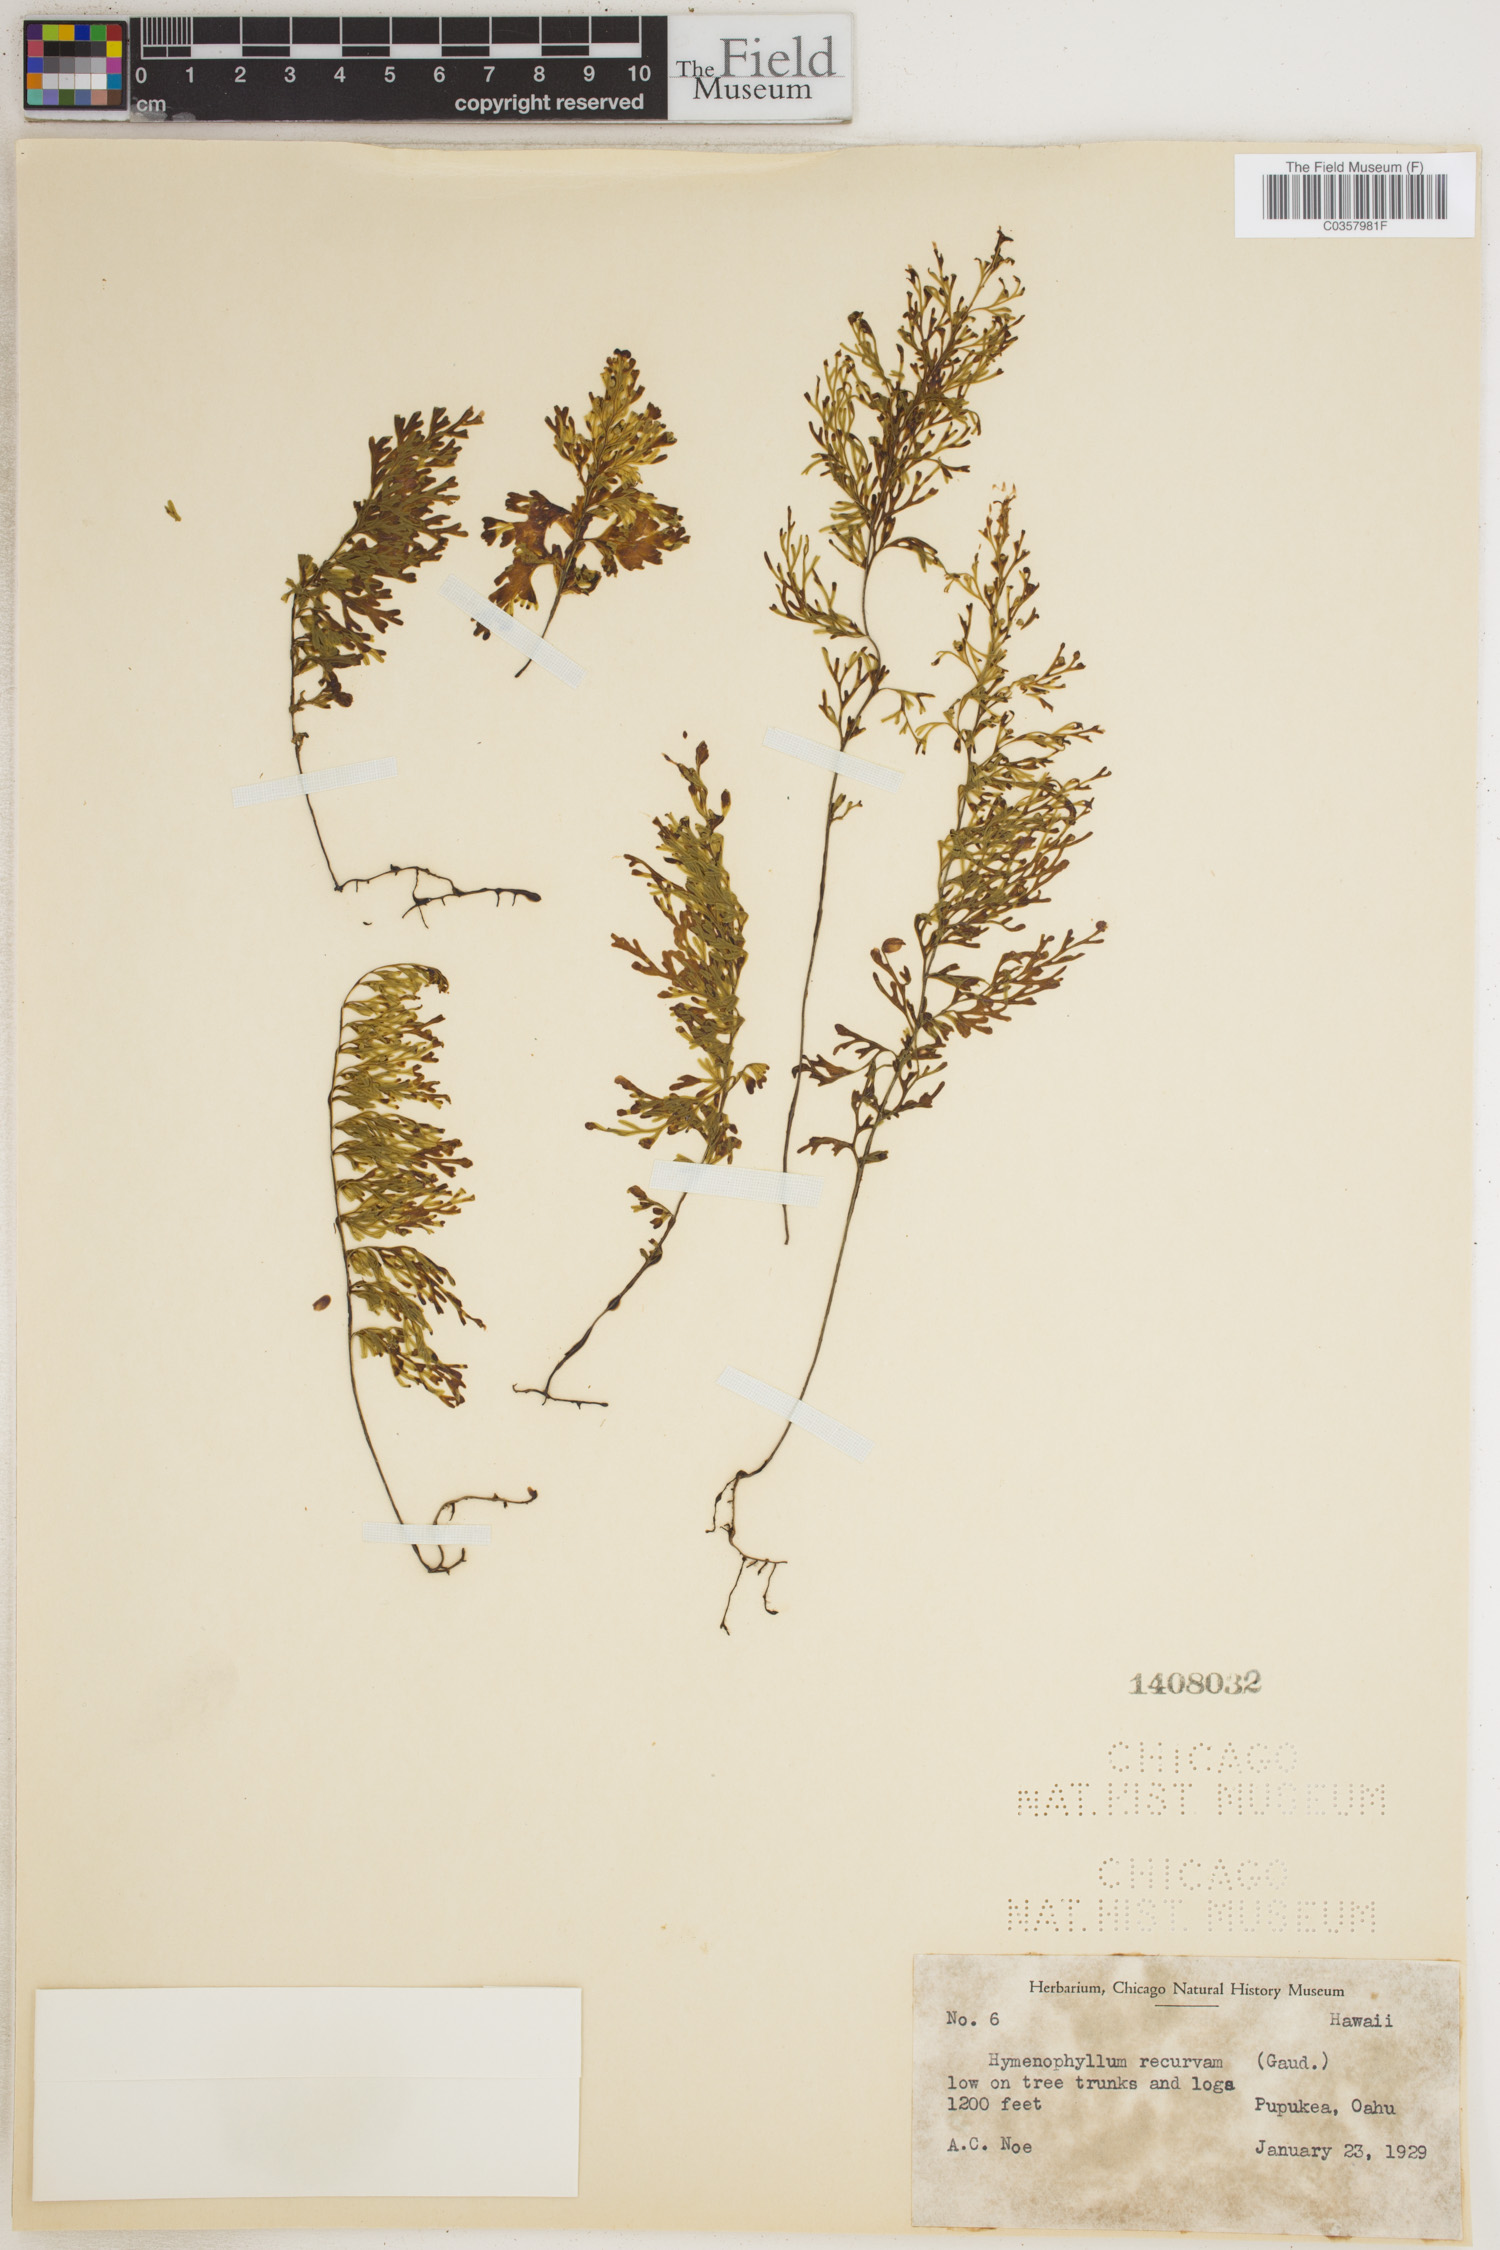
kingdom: Plantae
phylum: Tracheophyta
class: Polypodiopsida
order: Hymenophyllales
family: Hymenophyllaceae
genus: Hymenophyllum
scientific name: Hymenophyllum recurvum
